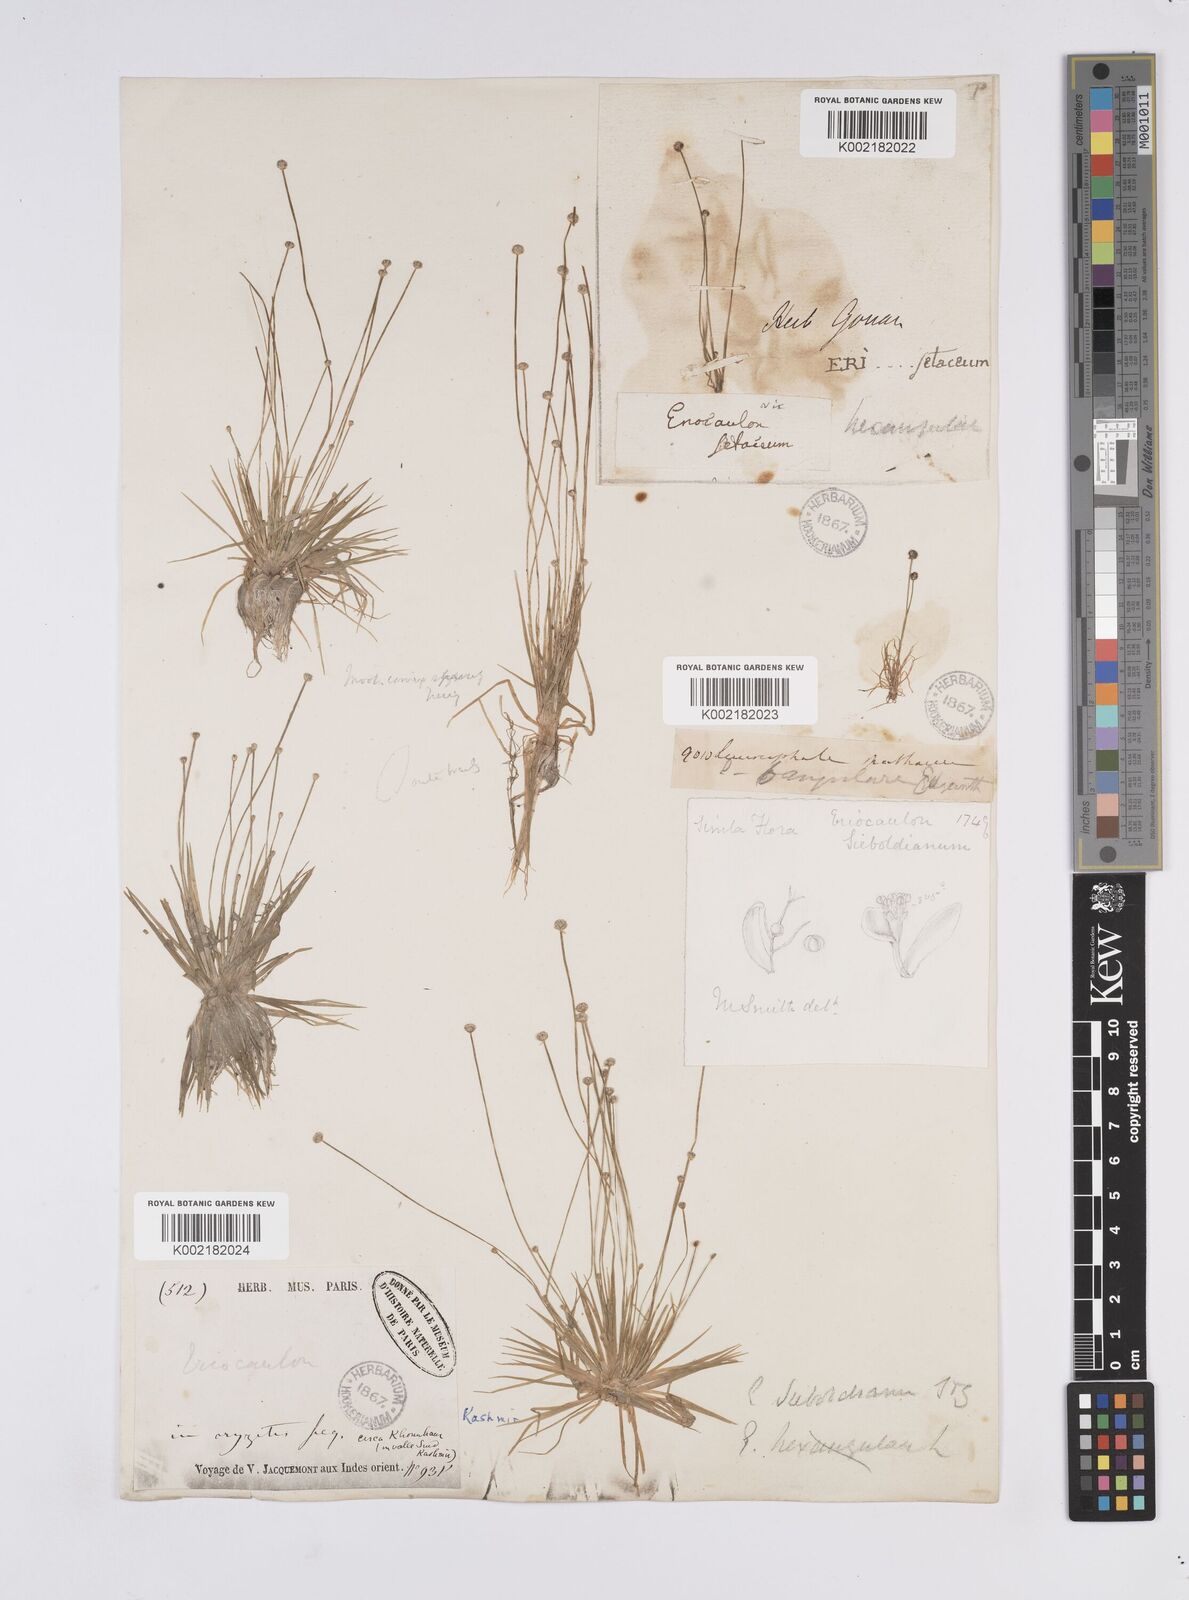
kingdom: Plantae
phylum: Tracheophyta
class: Liliopsida
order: Poales
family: Eriocaulaceae
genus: Eriocaulon
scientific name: Eriocaulon cinereum
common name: Ashy pipewort
